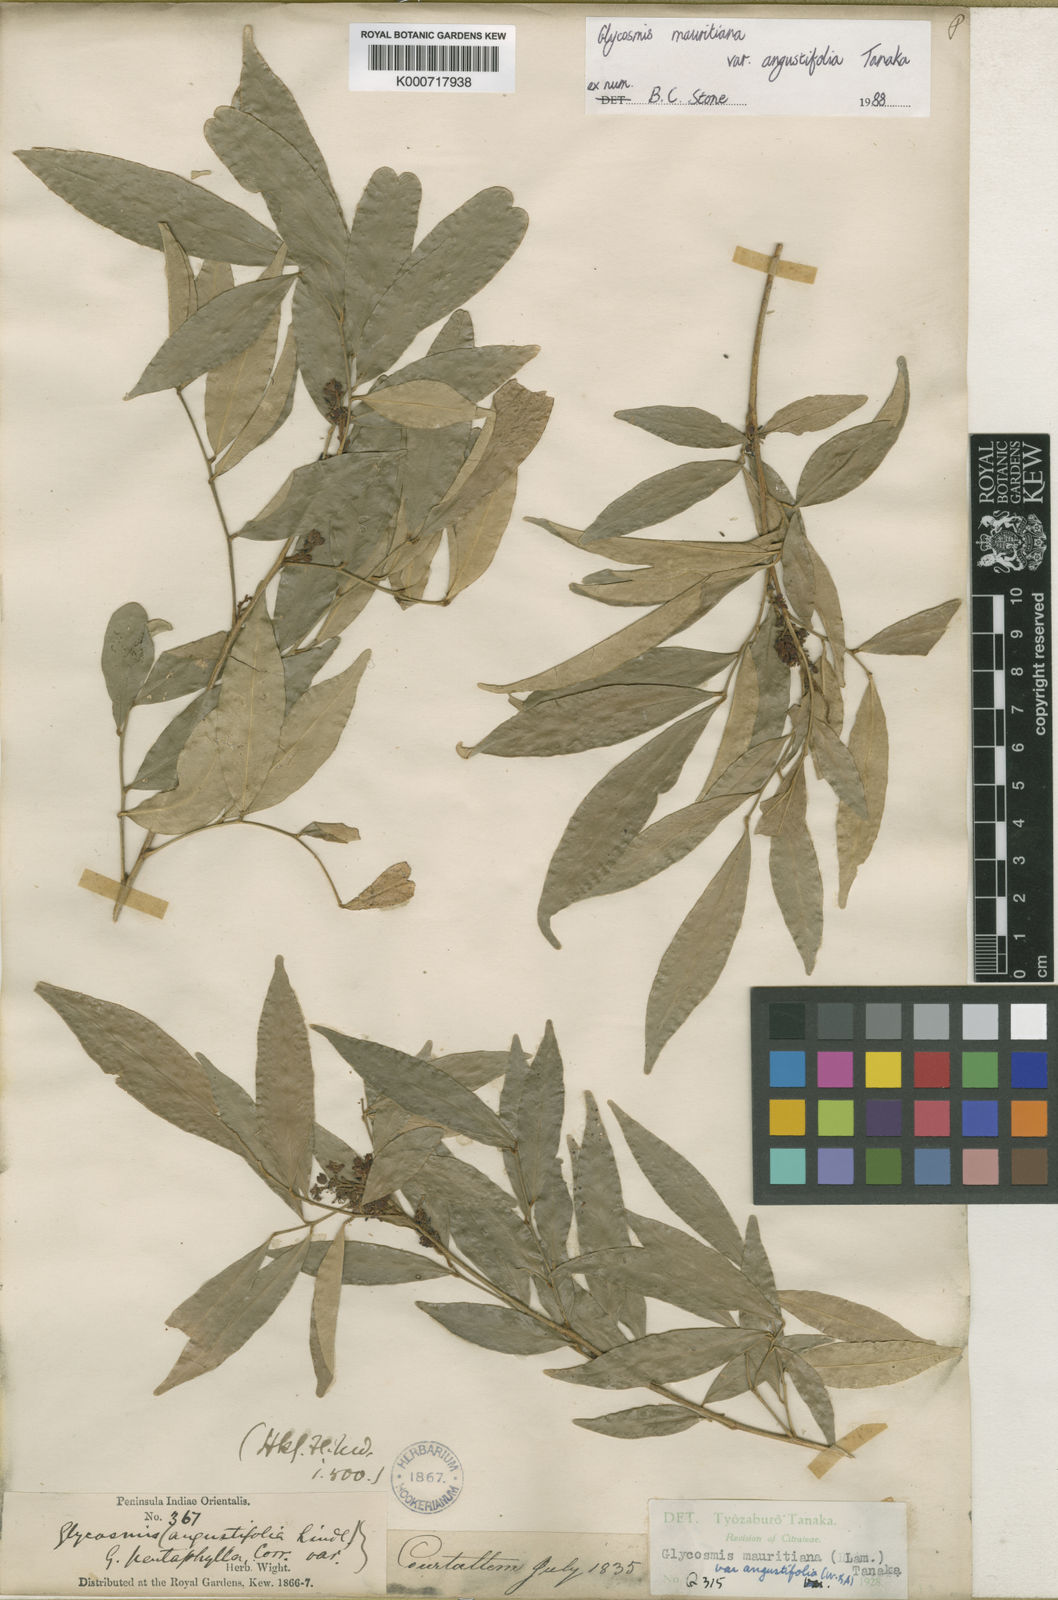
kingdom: Plantae
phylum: Tracheophyta
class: Magnoliopsida
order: Sapindales
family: Rutaceae
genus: Glycosmis
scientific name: Glycosmis mauritiana
